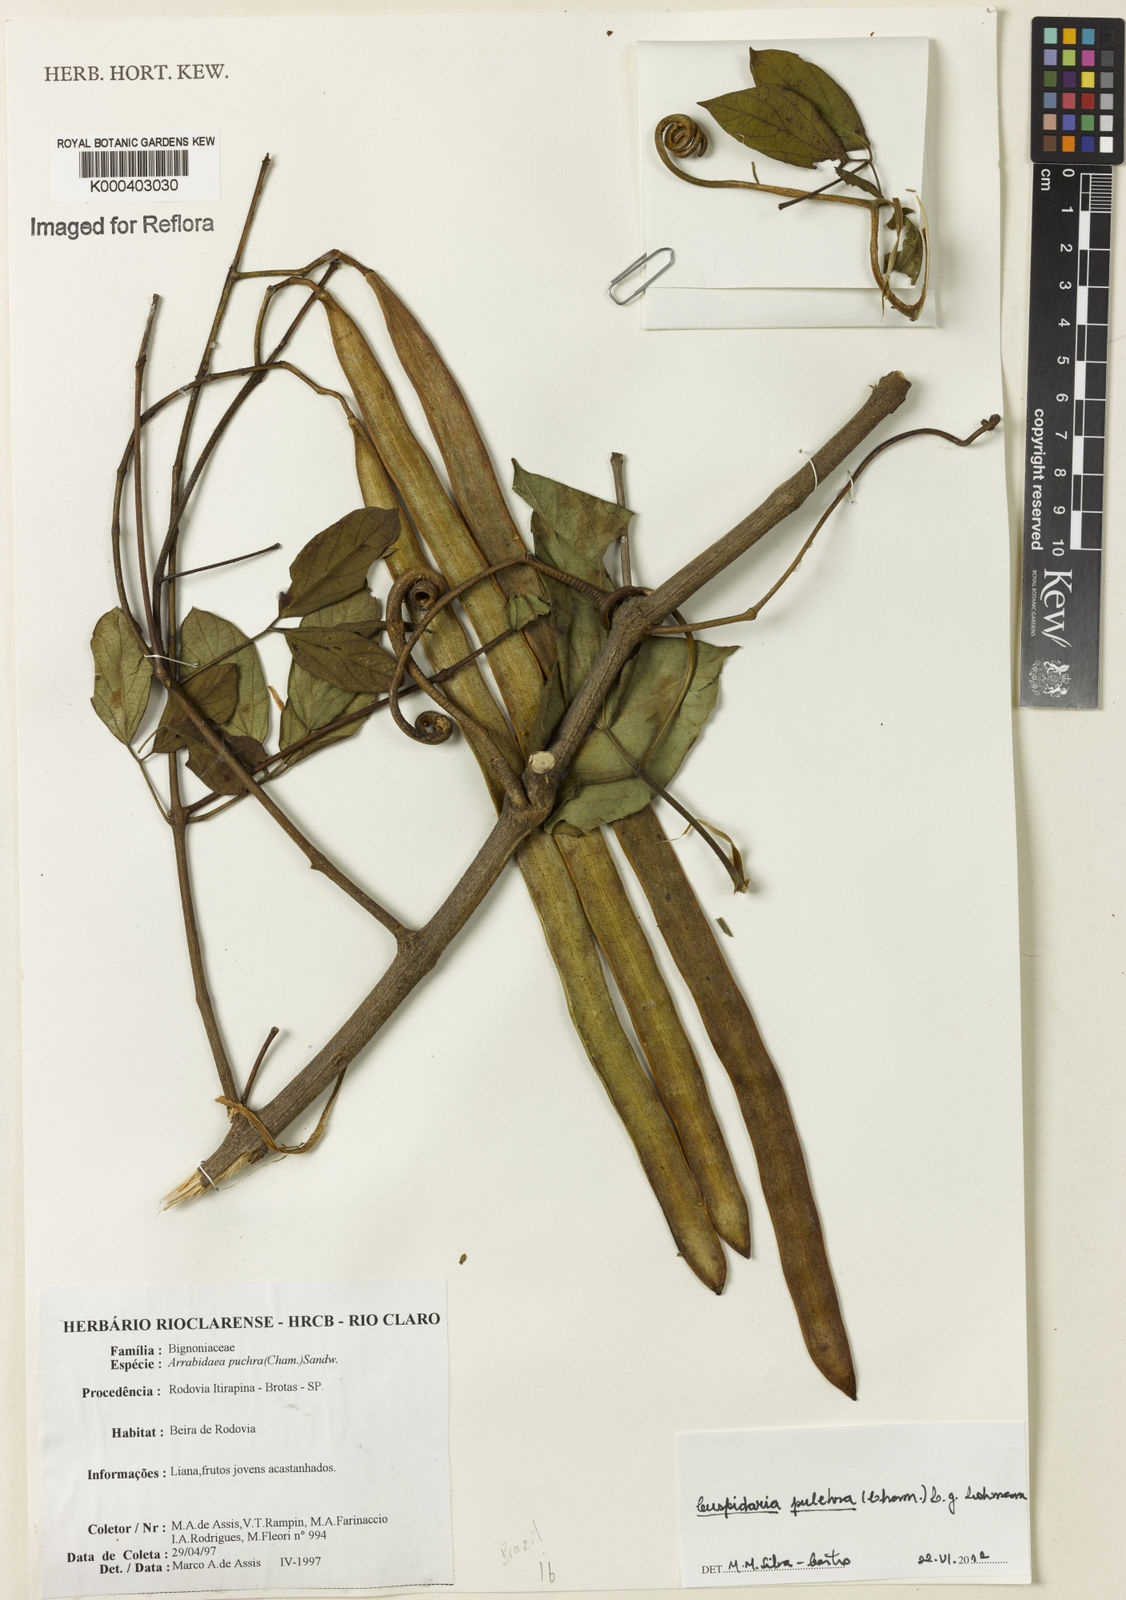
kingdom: Plantae
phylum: Tracheophyta
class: Magnoliopsida
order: Lamiales
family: Bignoniaceae
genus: Cuspidaria
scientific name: Cuspidaria pulchra
